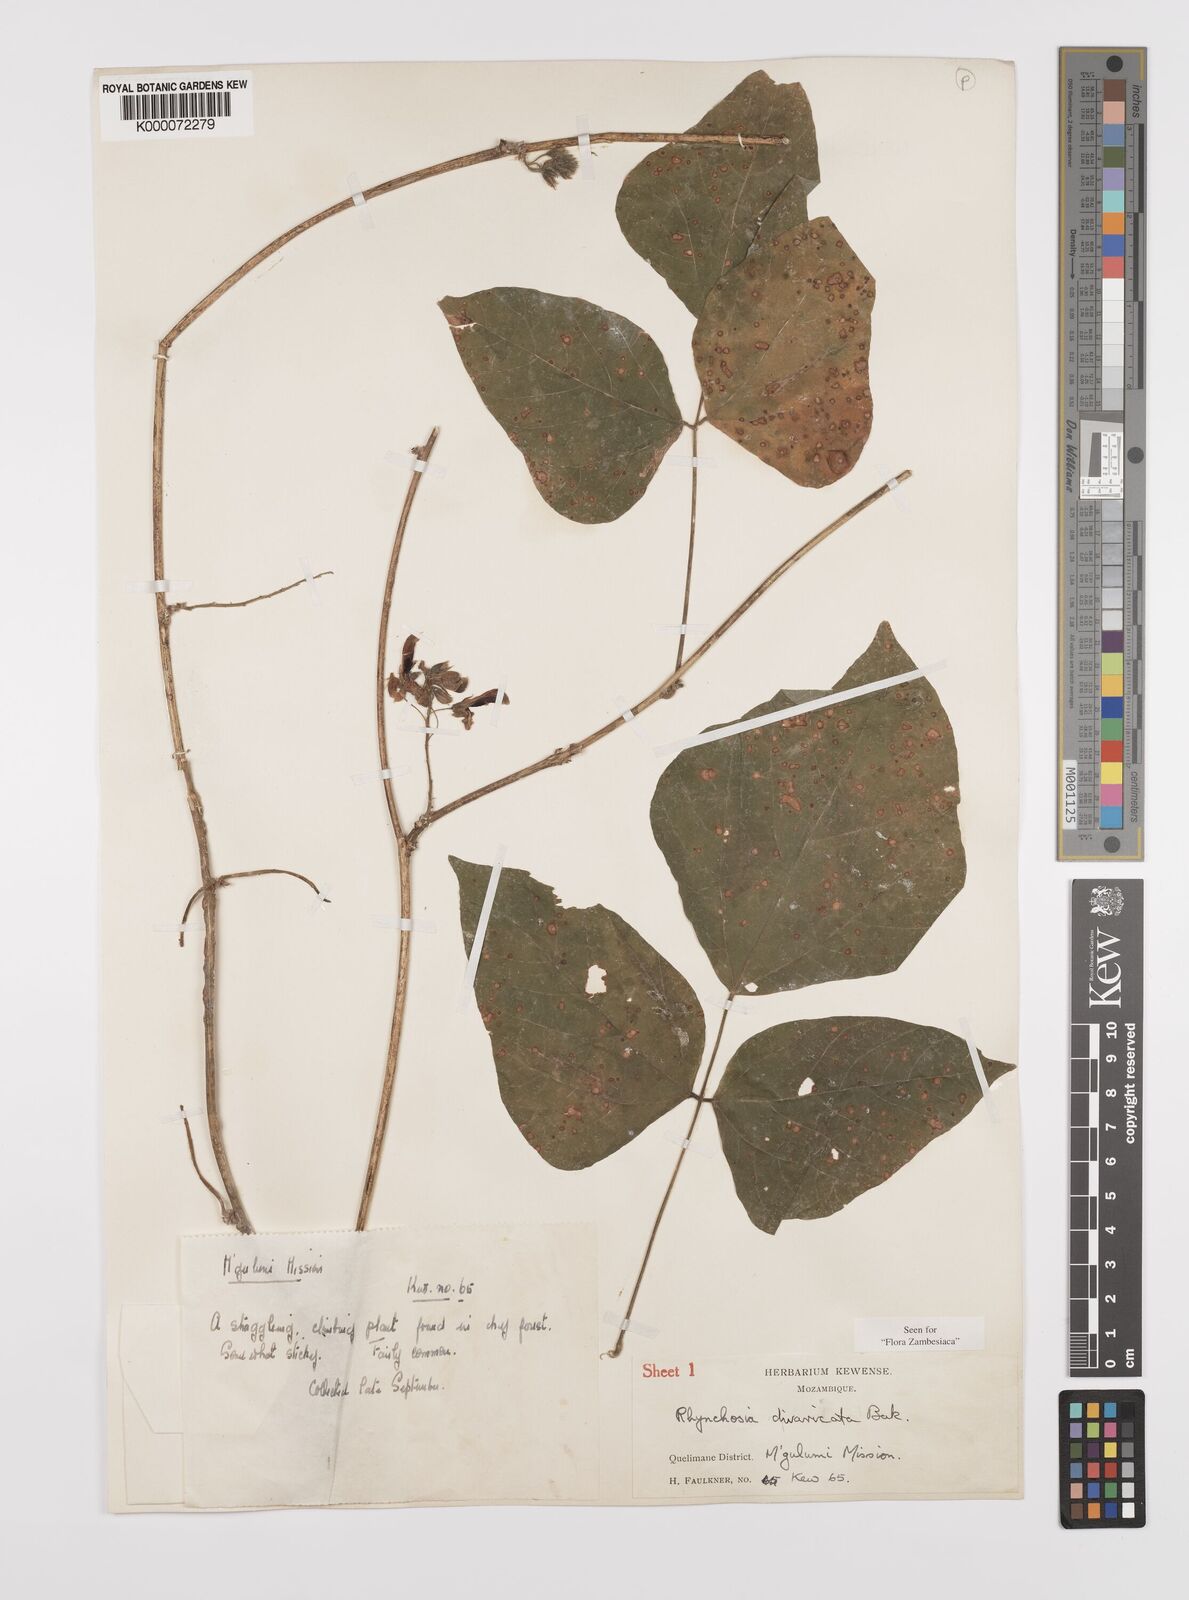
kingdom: Plantae
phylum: Tracheophyta
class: Magnoliopsida
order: Fabales
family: Fabaceae
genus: Rhynchosia
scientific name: Rhynchosia divaricata
